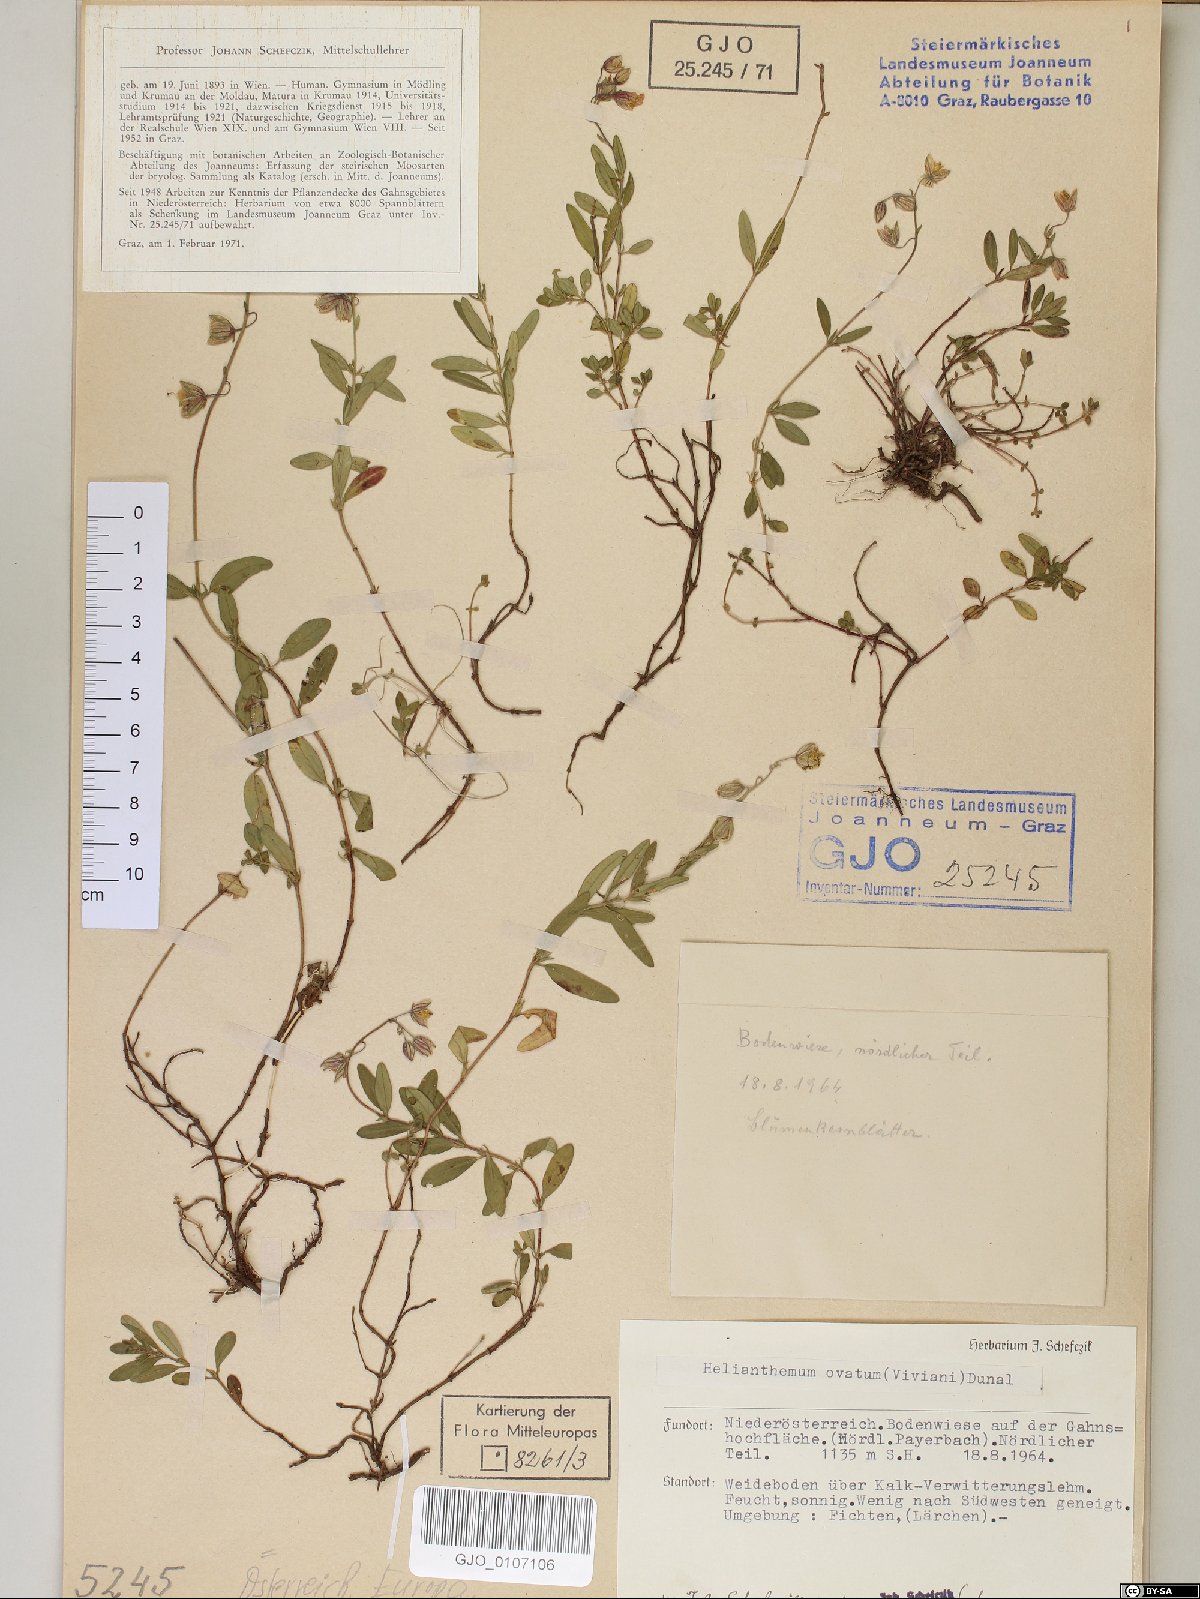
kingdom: Plantae
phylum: Tracheophyta
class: Magnoliopsida
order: Malvales
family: Cistaceae
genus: Helianthemum
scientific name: Helianthemum nummularium
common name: Common rock-rose
